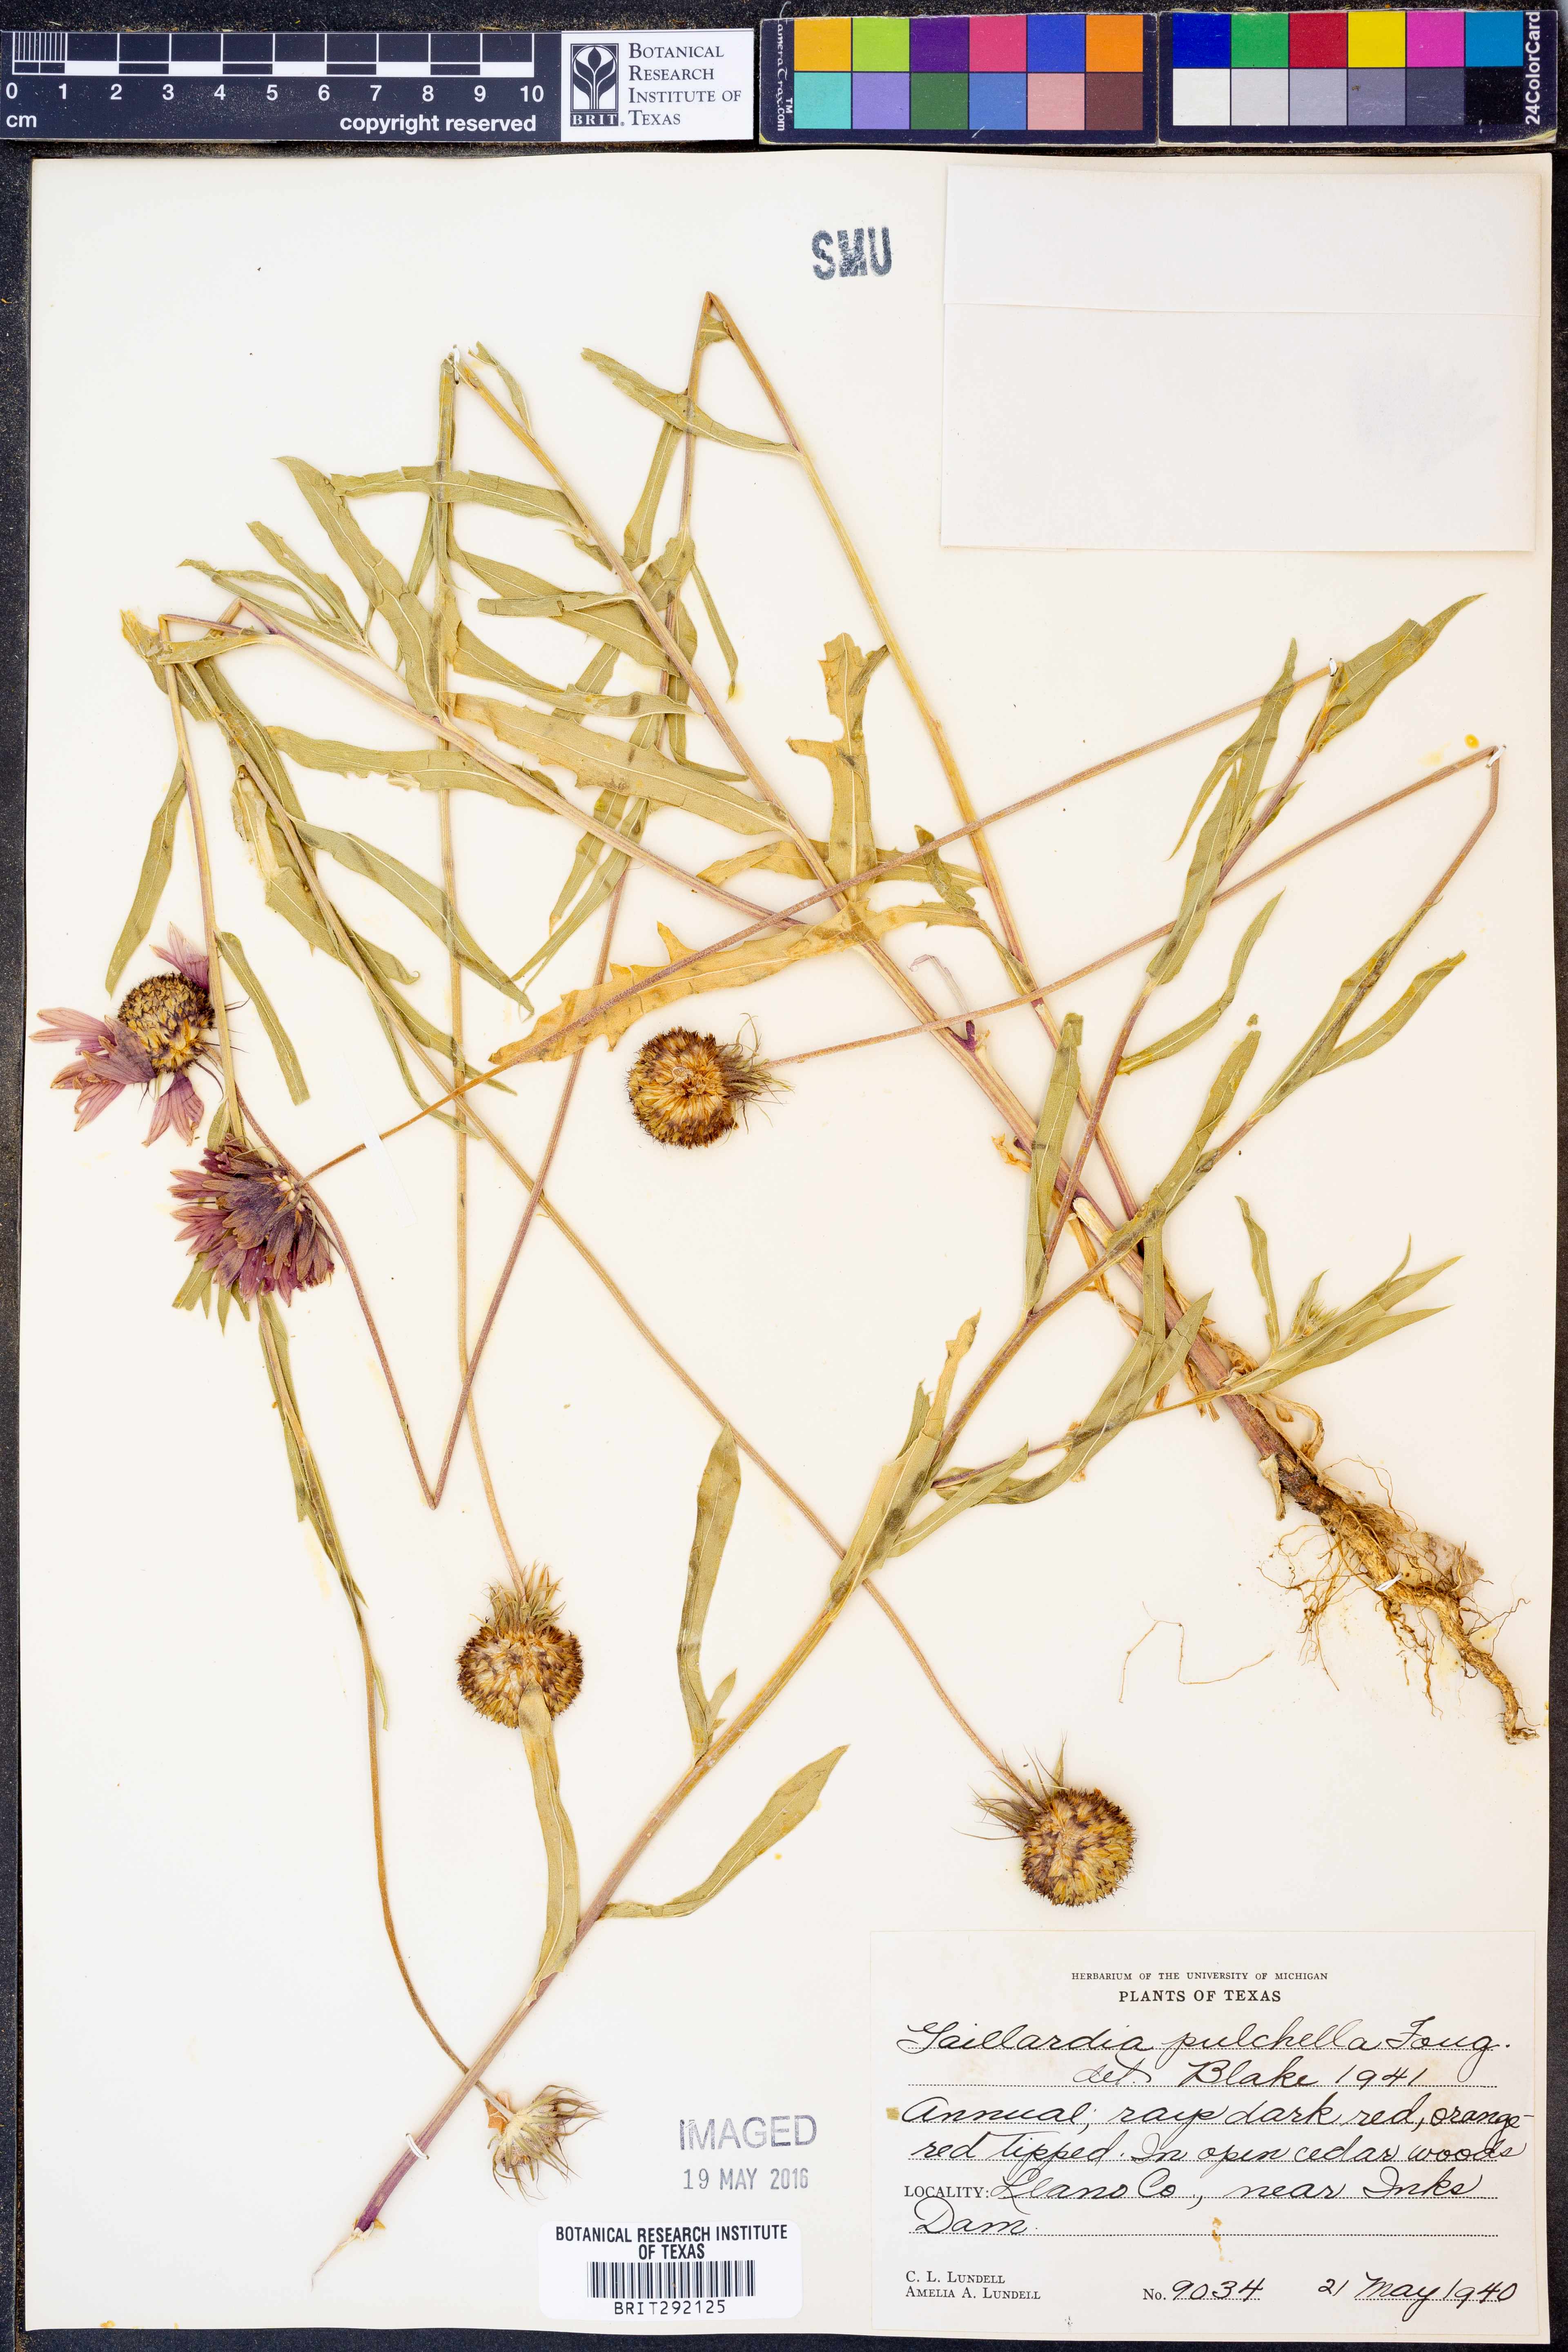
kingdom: Plantae
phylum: Tracheophyta
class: Magnoliopsida
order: Asterales
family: Asteraceae
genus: Gaillardia
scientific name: Gaillardia pulchella
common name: Firewheel
